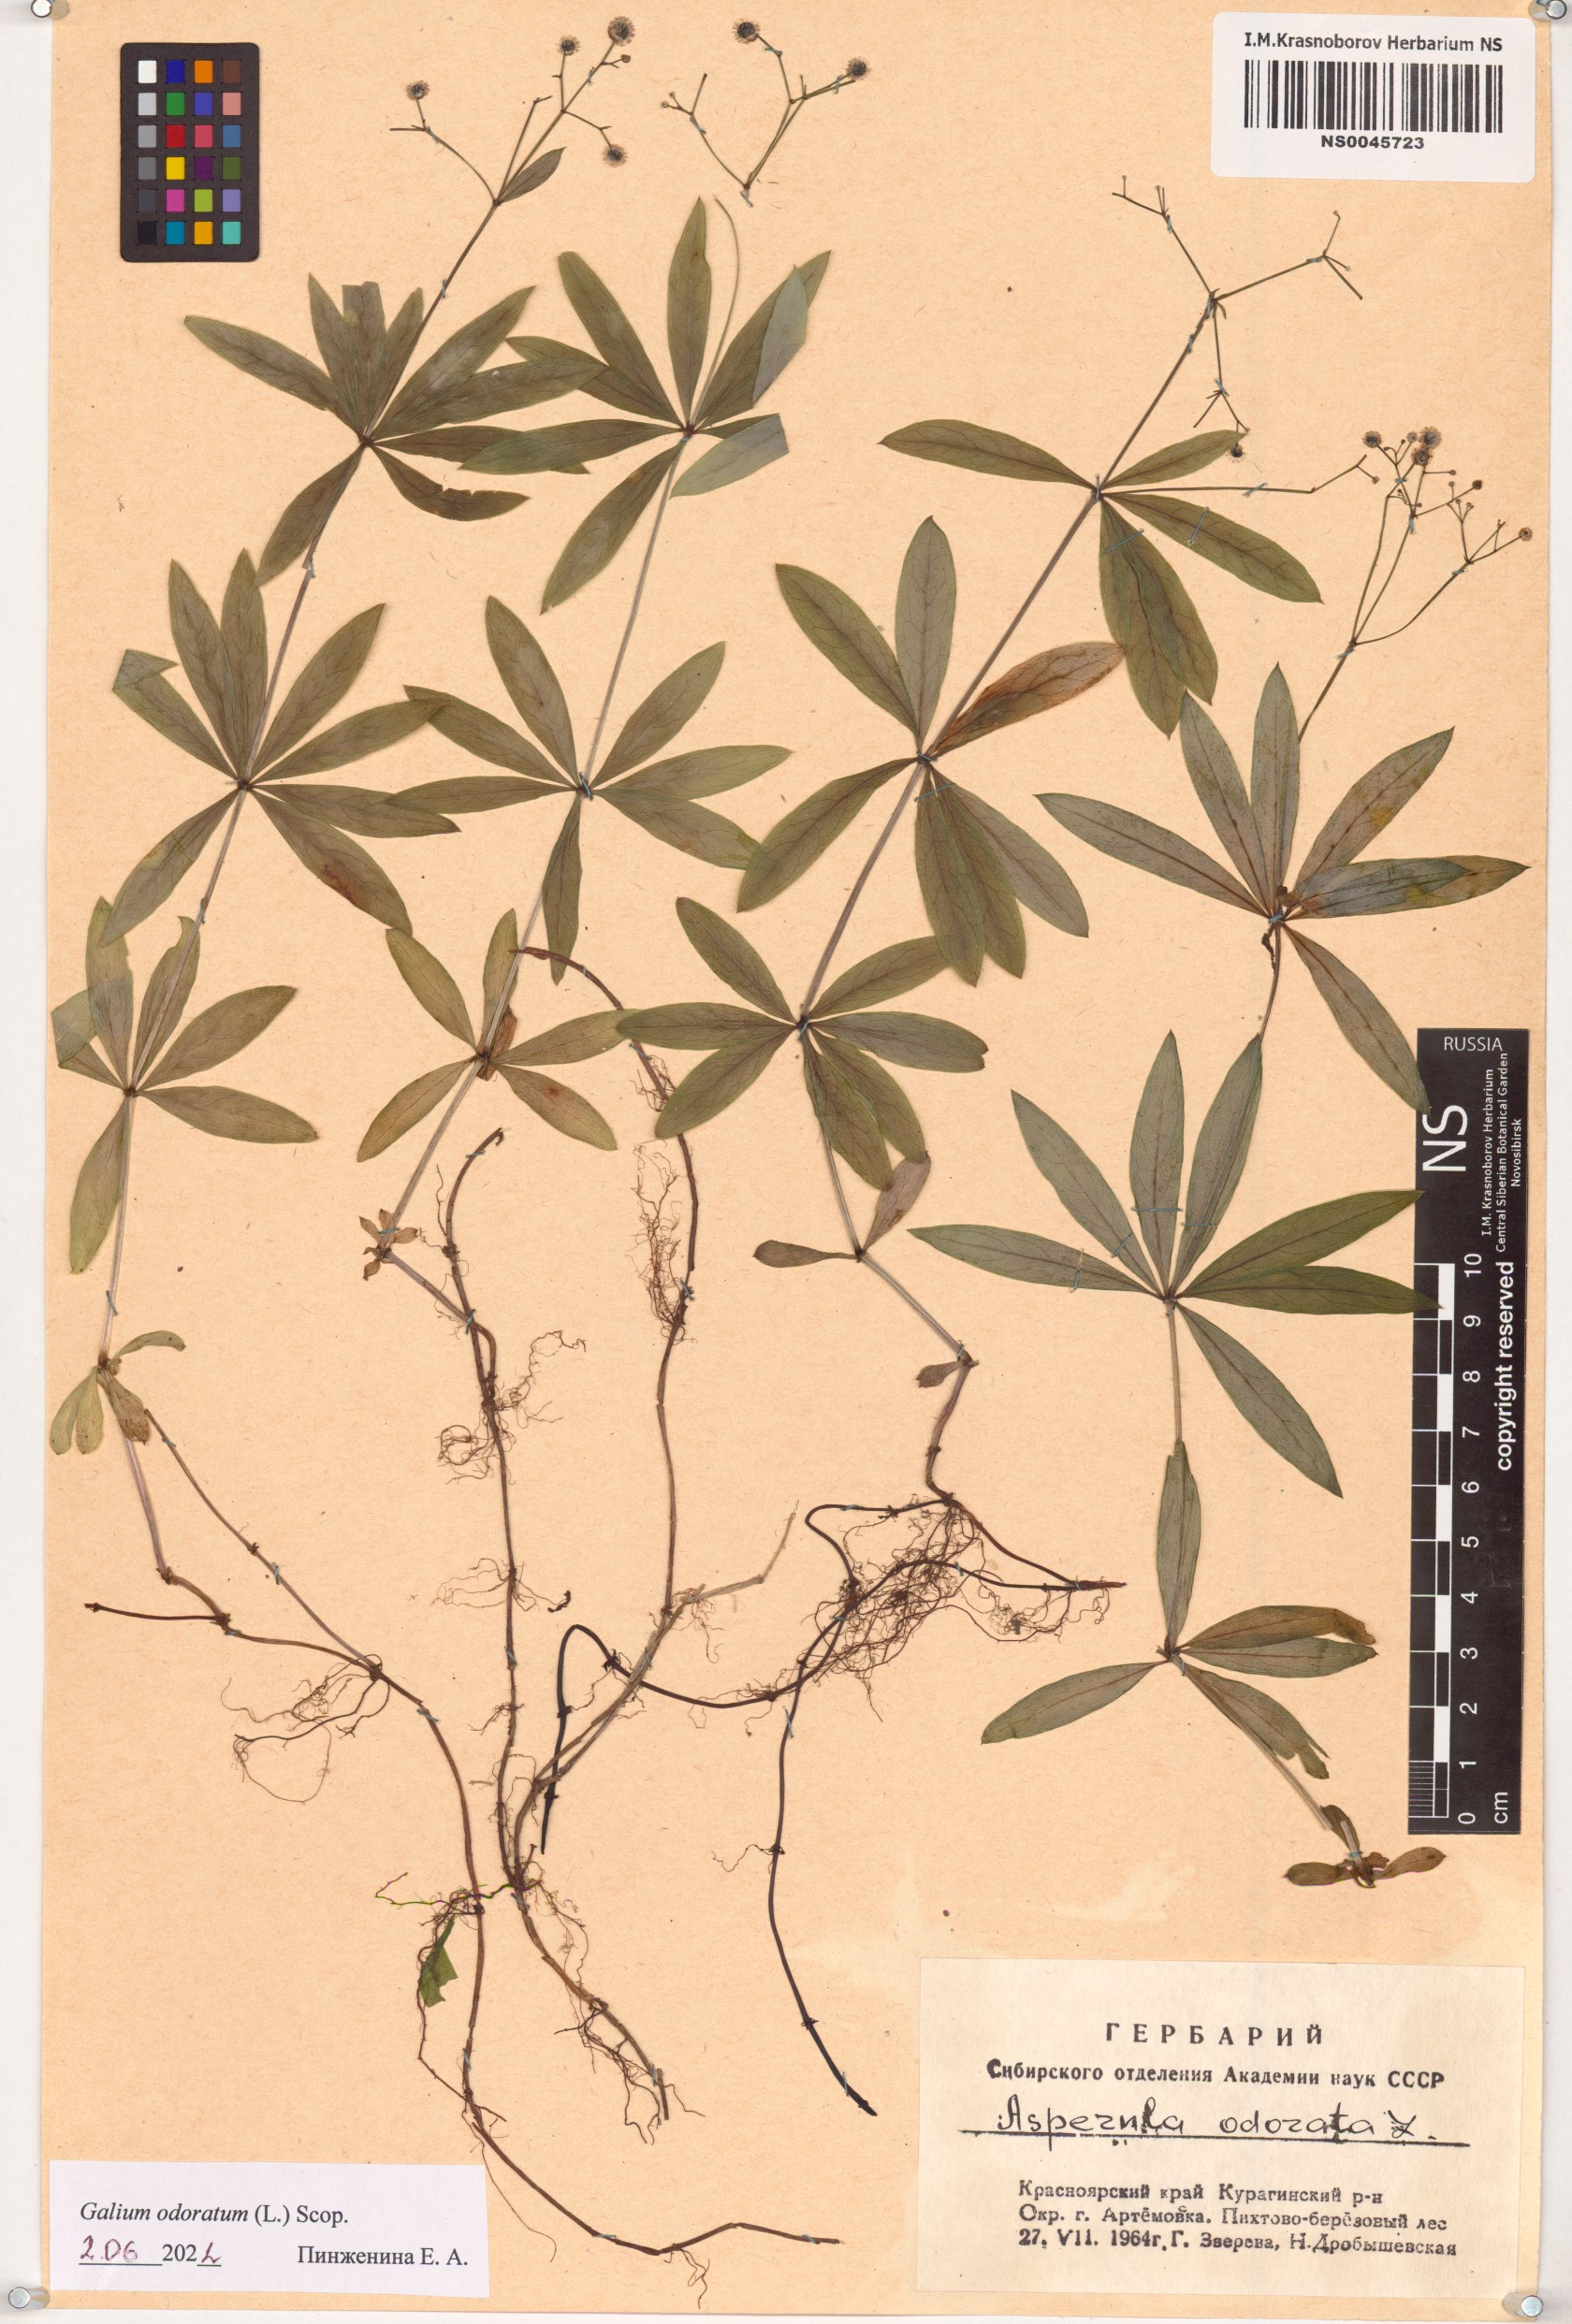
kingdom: Plantae
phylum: Tracheophyta
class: Magnoliopsida
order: Gentianales
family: Rubiaceae
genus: Galium
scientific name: Galium odoratum
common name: Sweet woodruff
